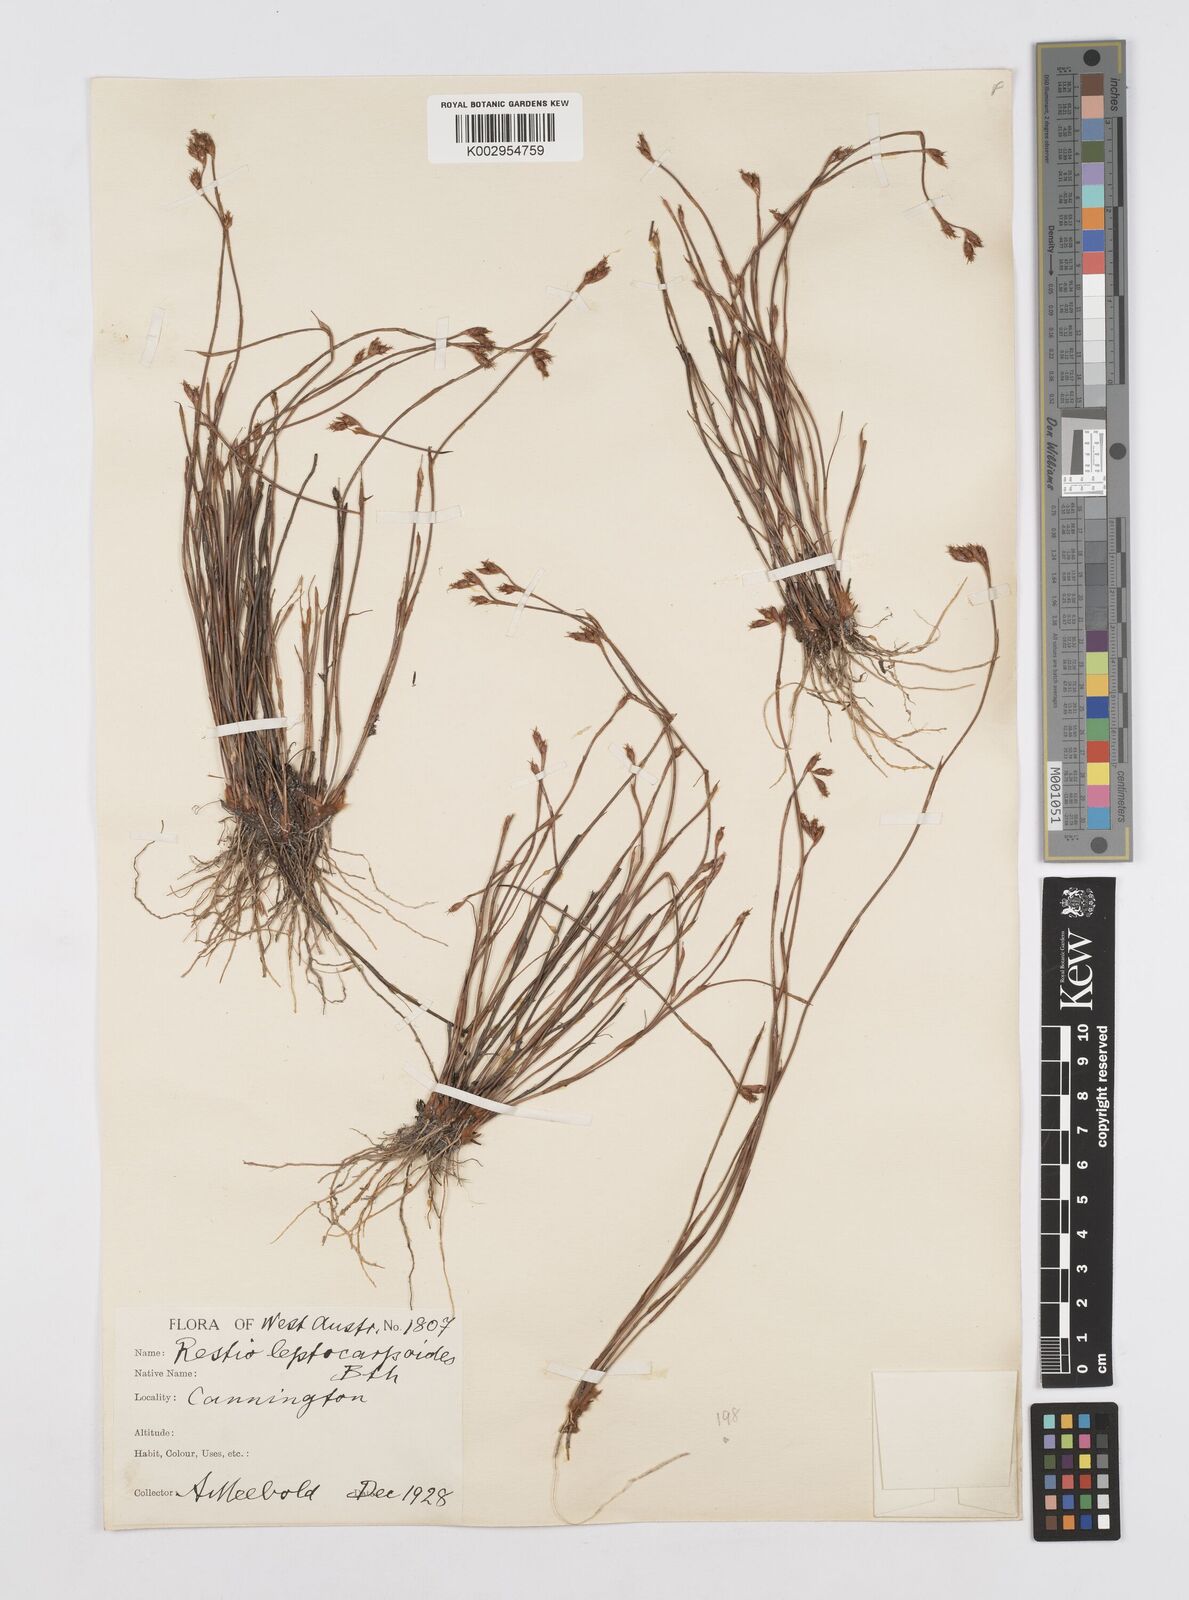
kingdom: Plantae
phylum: Tracheophyta
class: Liliopsida
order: Poales
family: Restionaceae
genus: Cytogonidium
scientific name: Cytogonidium leptocarpoides
